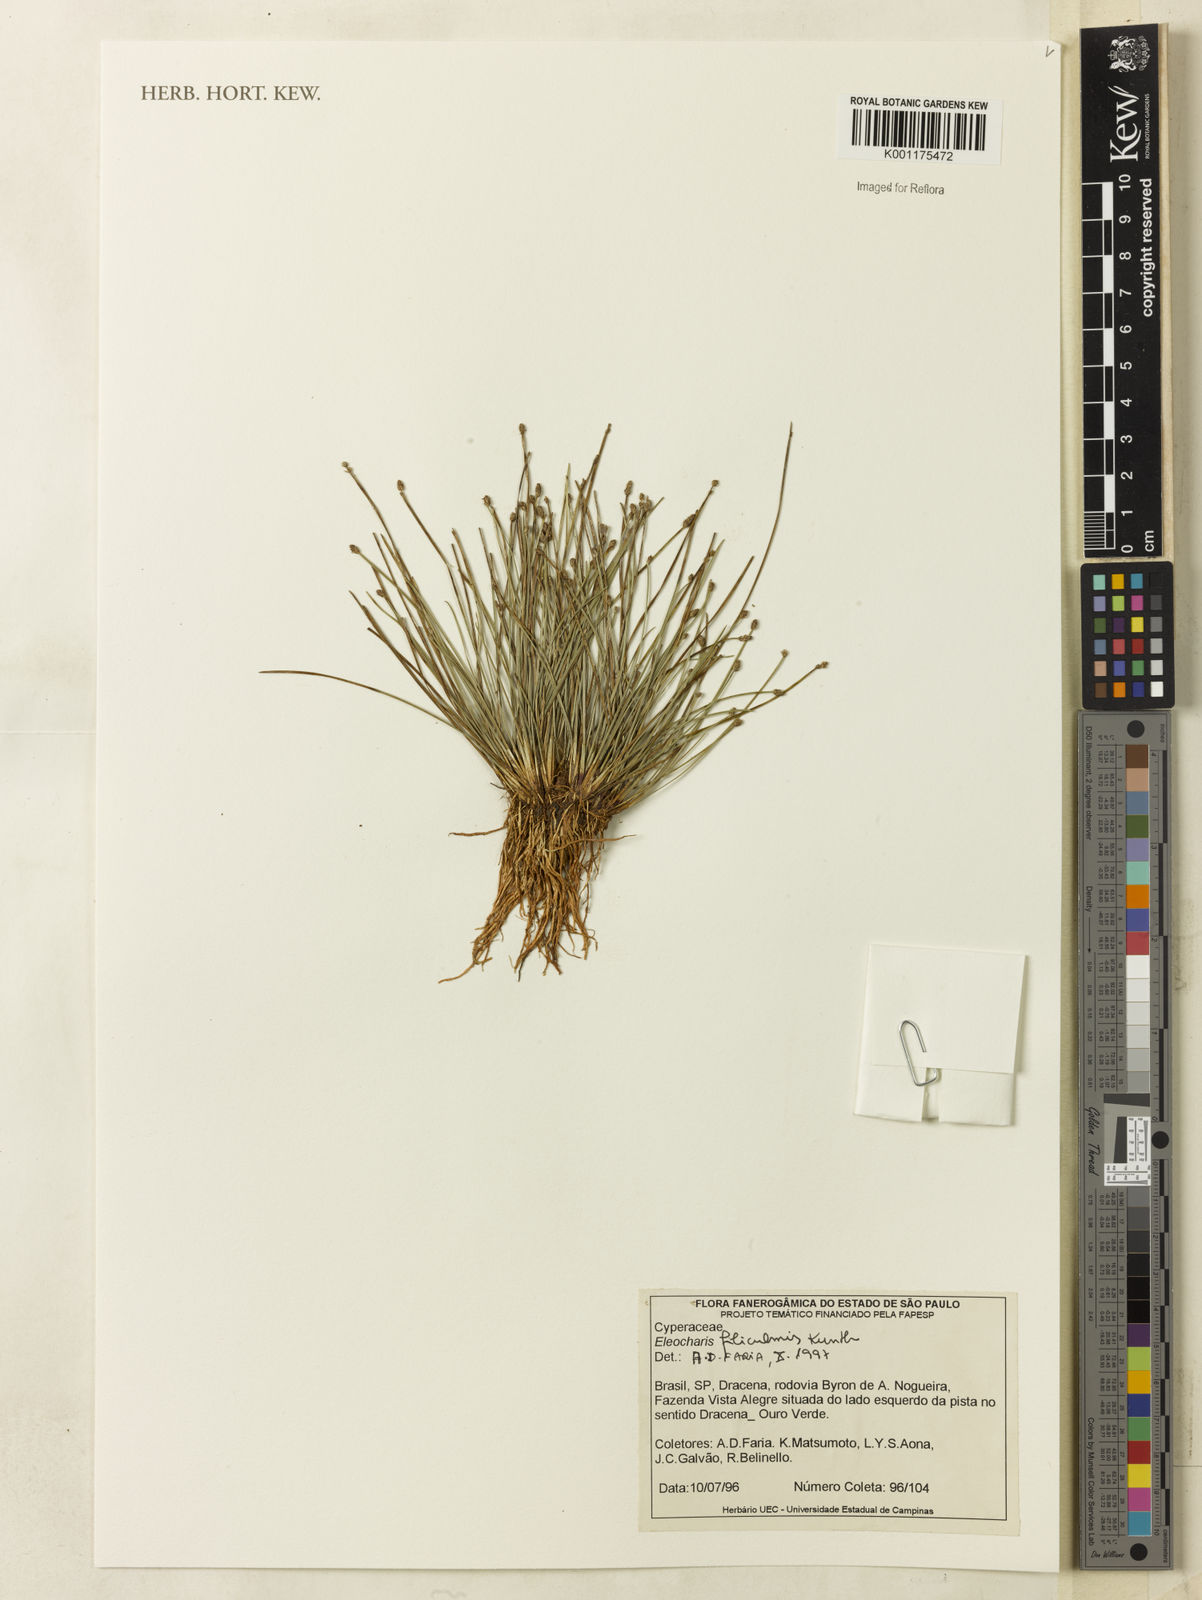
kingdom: Plantae
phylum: Tracheophyta
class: Liliopsida
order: Poales
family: Cyperaceae
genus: Eleocharis
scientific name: Eleocharis filiculmis
